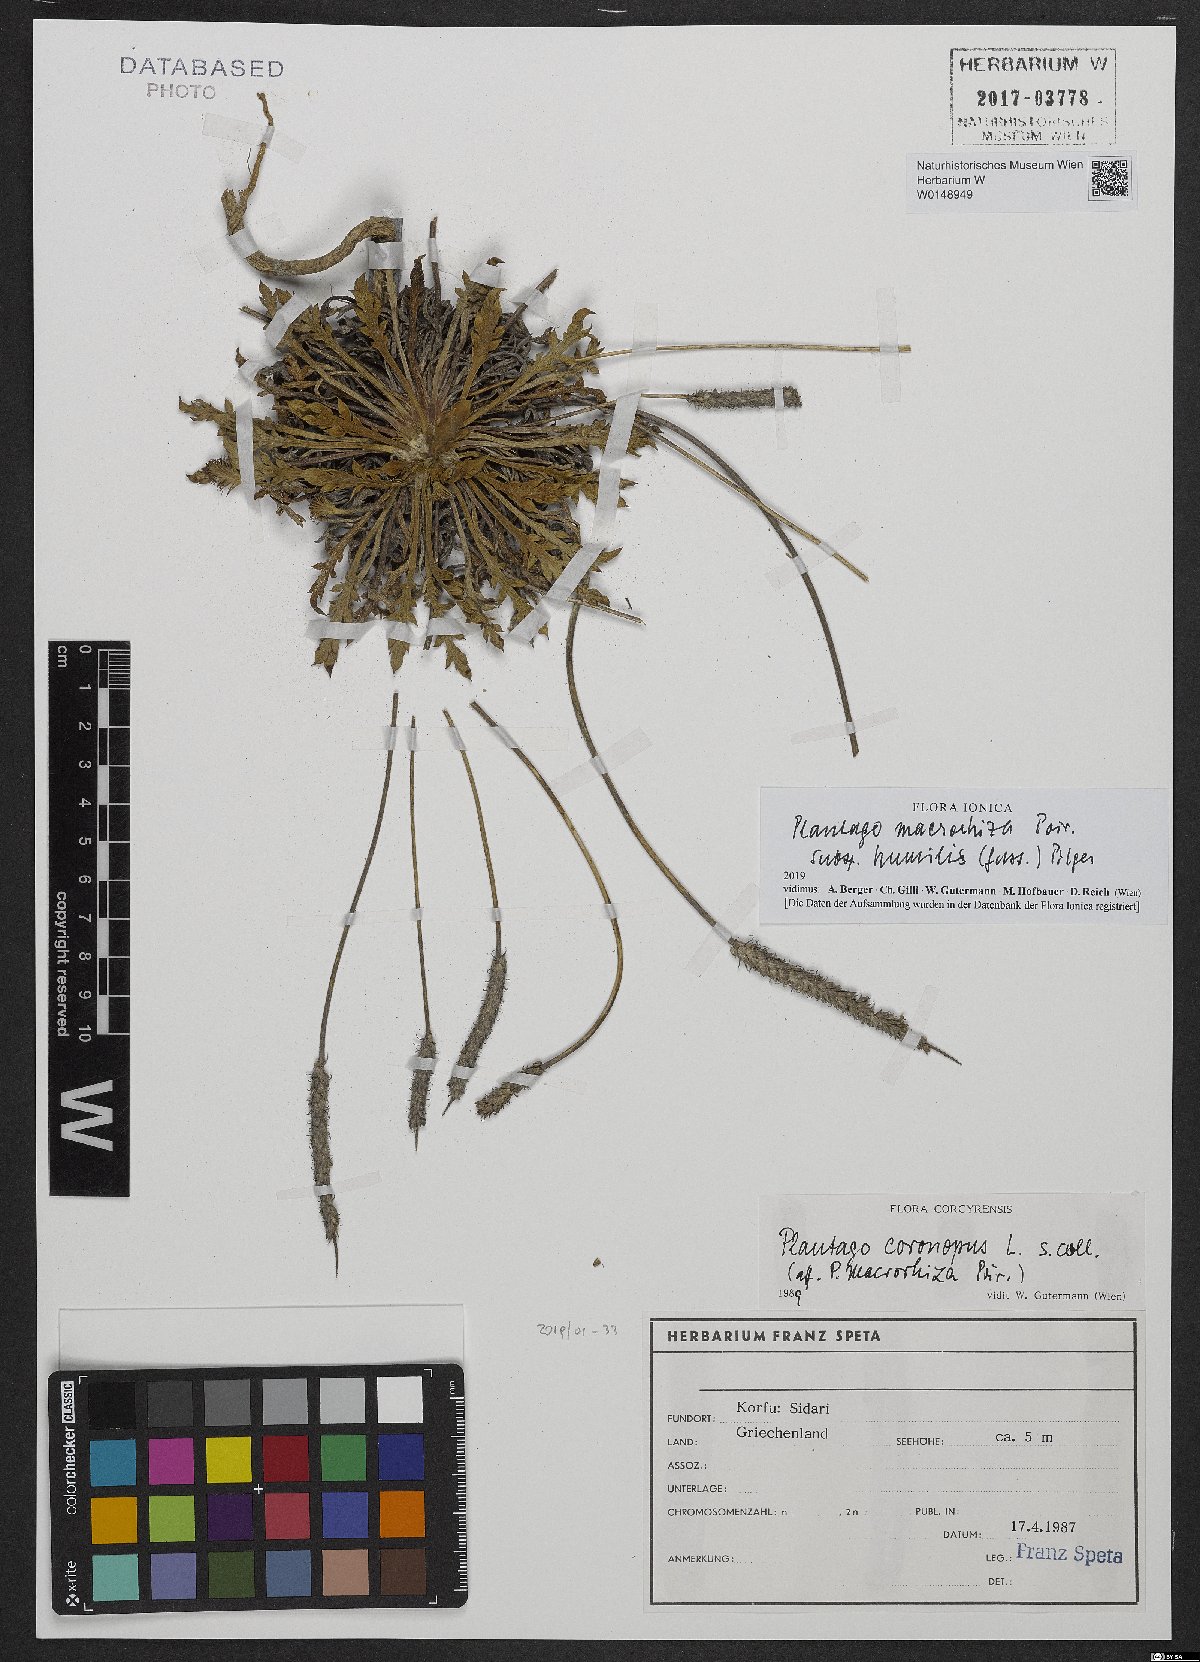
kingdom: Plantae
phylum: Tracheophyta
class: Magnoliopsida
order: Lamiales
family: Plantaginaceae
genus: Plantago
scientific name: Plantago macrorhiza
